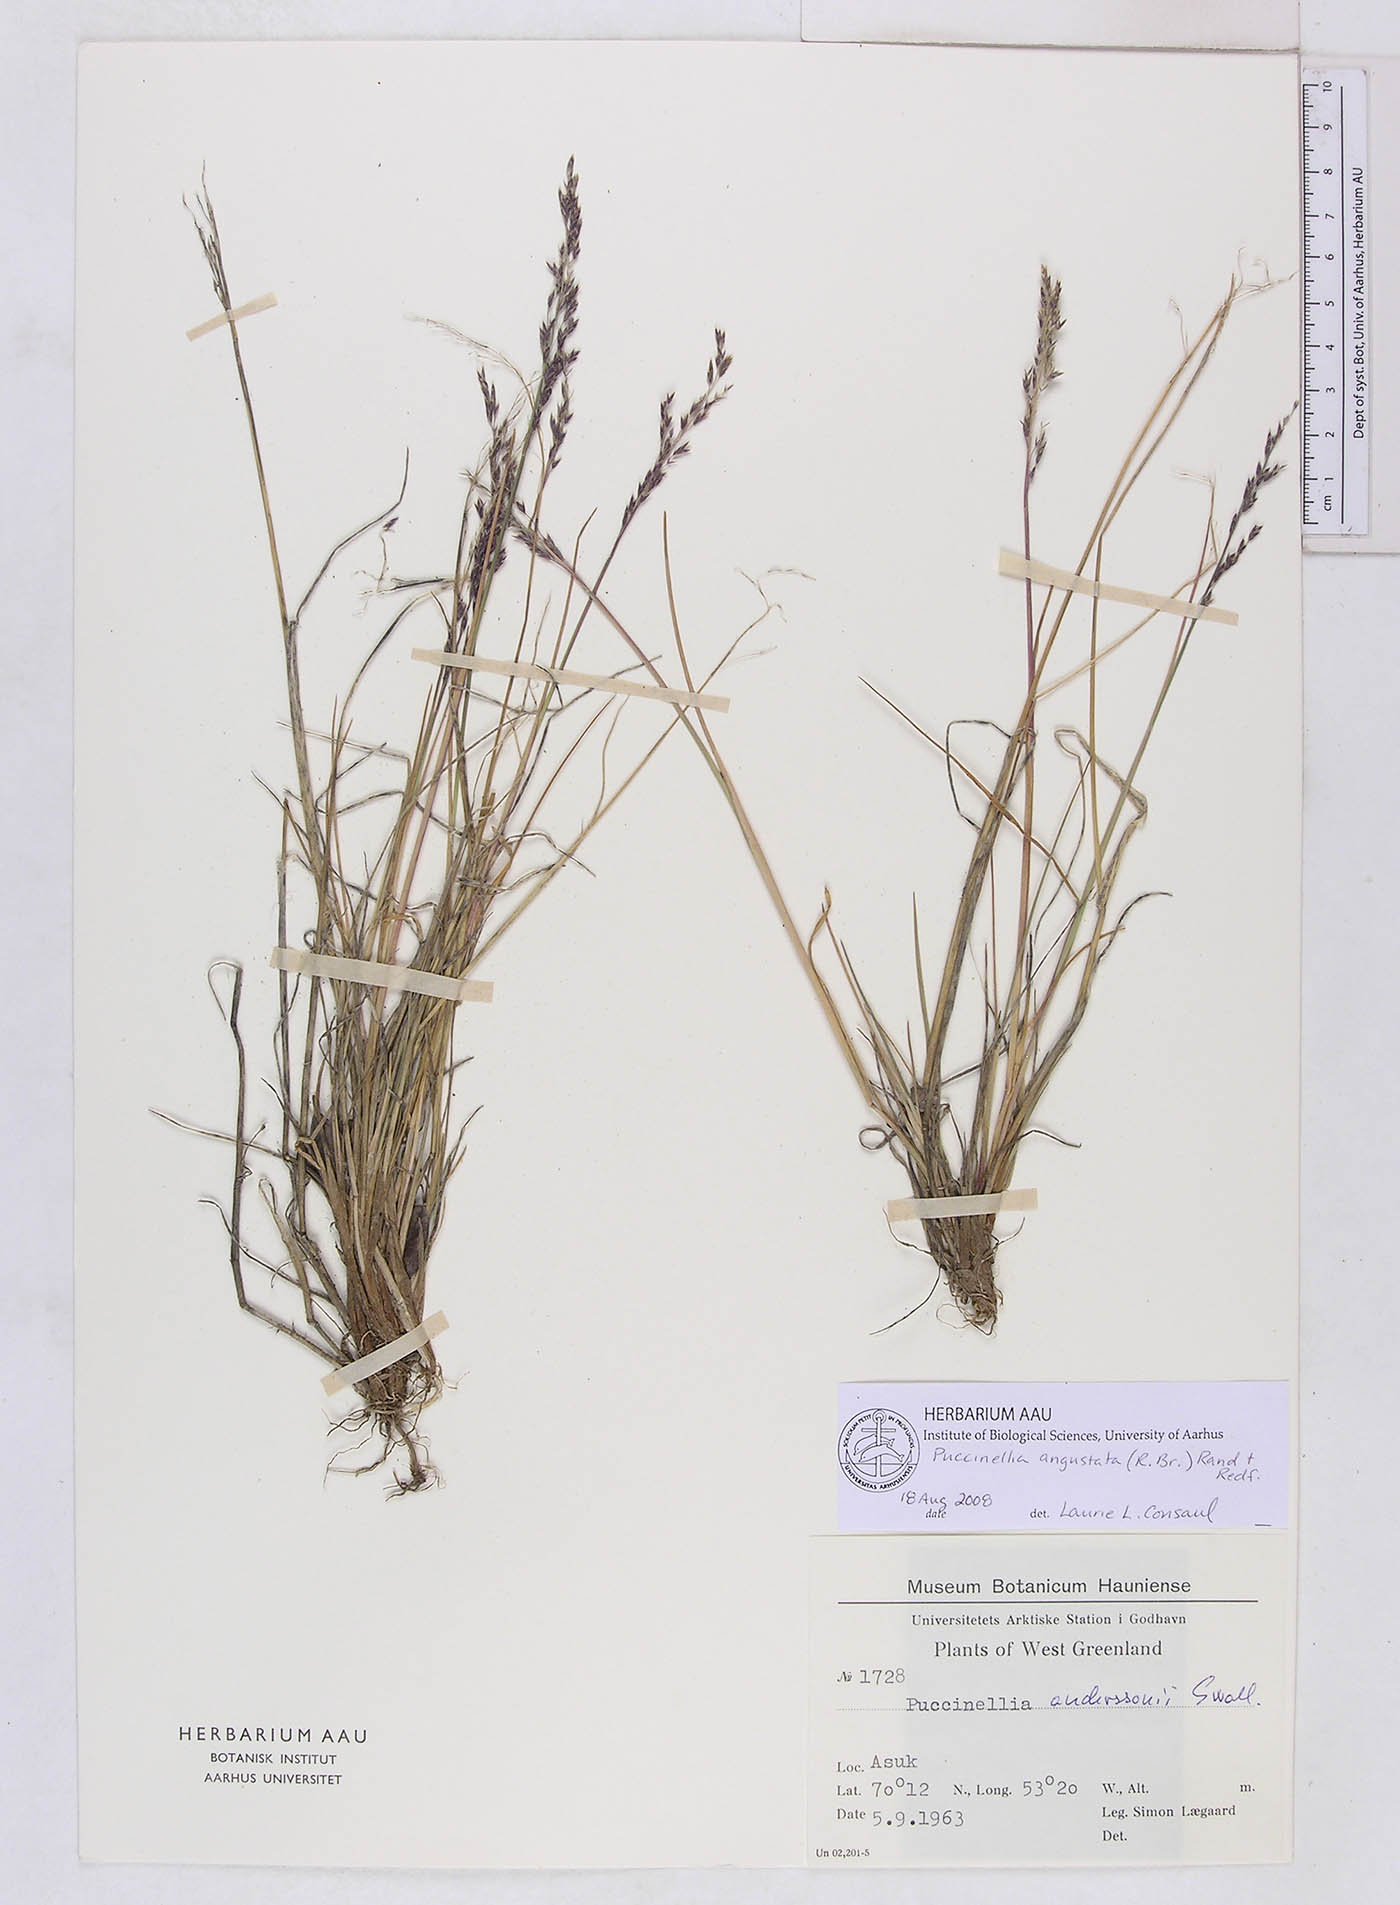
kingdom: Plantae
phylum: Tracheophyta
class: Liliopsida
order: Poales
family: Poaceae
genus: Puccinellia
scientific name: Puccinellia angustata
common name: Narrow alkaligrass
